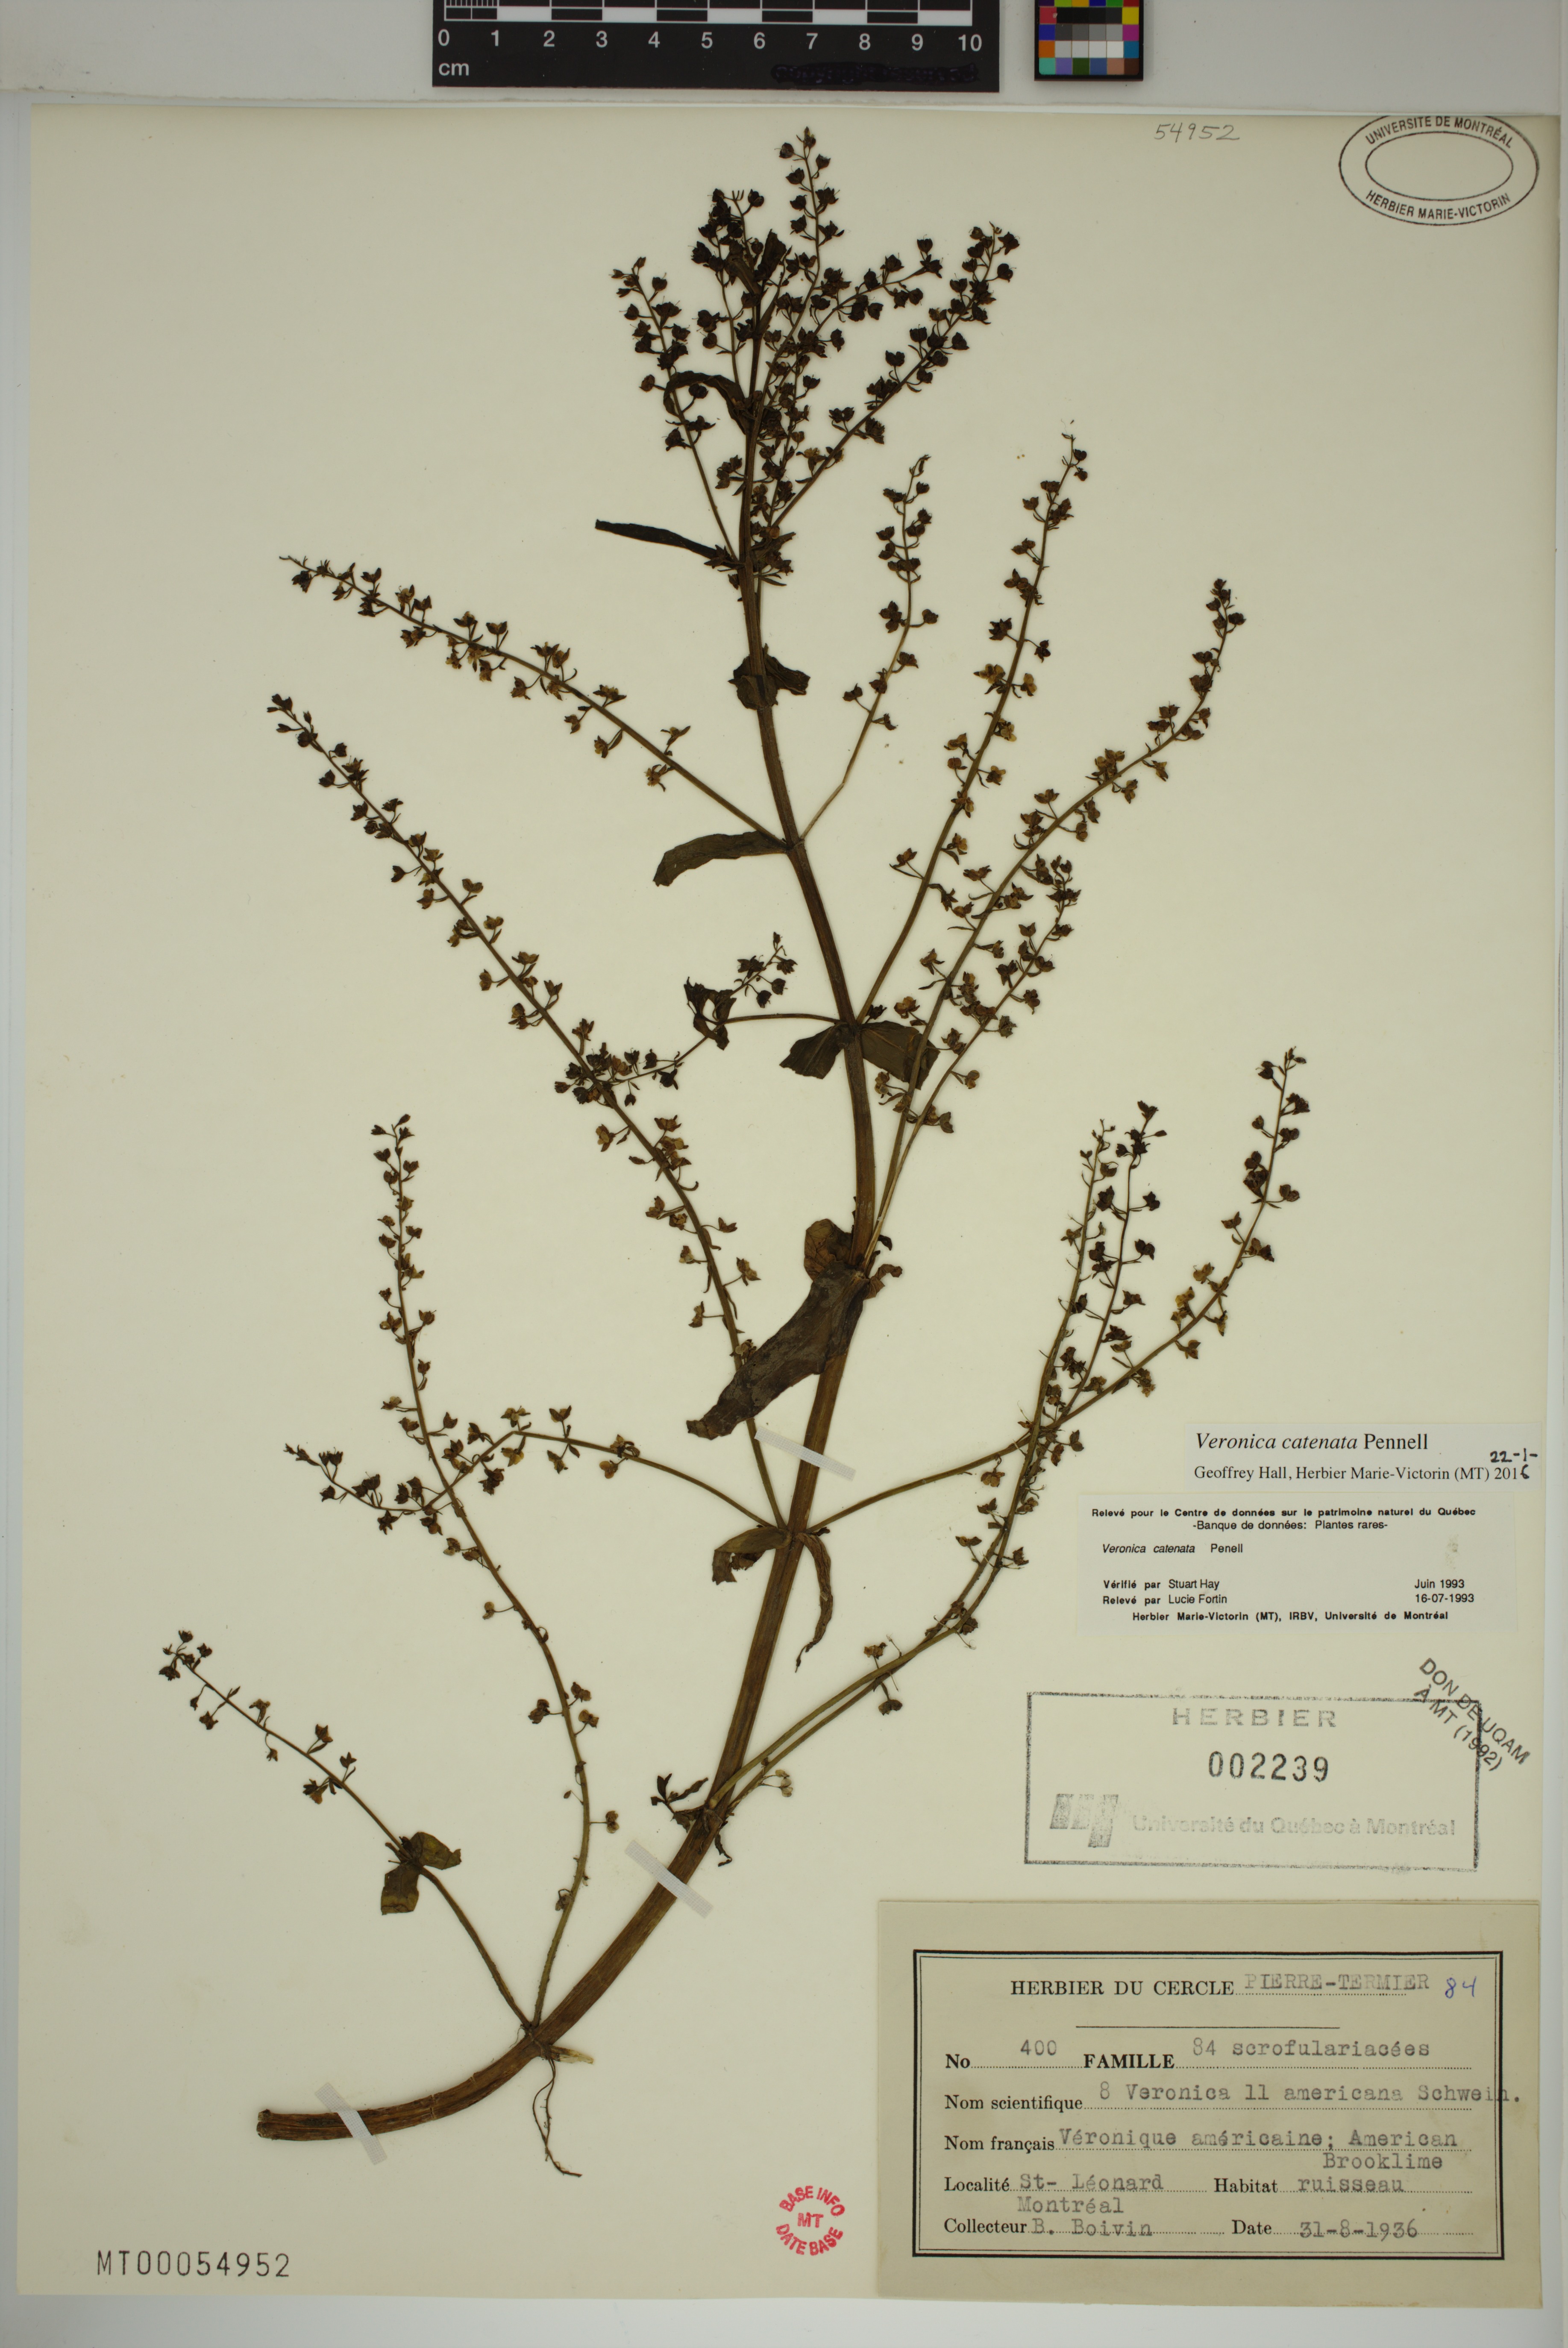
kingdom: Plantae
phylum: Tracheophyta
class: Magnoliopsida
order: Lamiales
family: Plantaginaceae
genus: Veronica
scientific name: Veronica catenata
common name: Pink water-speedwell
